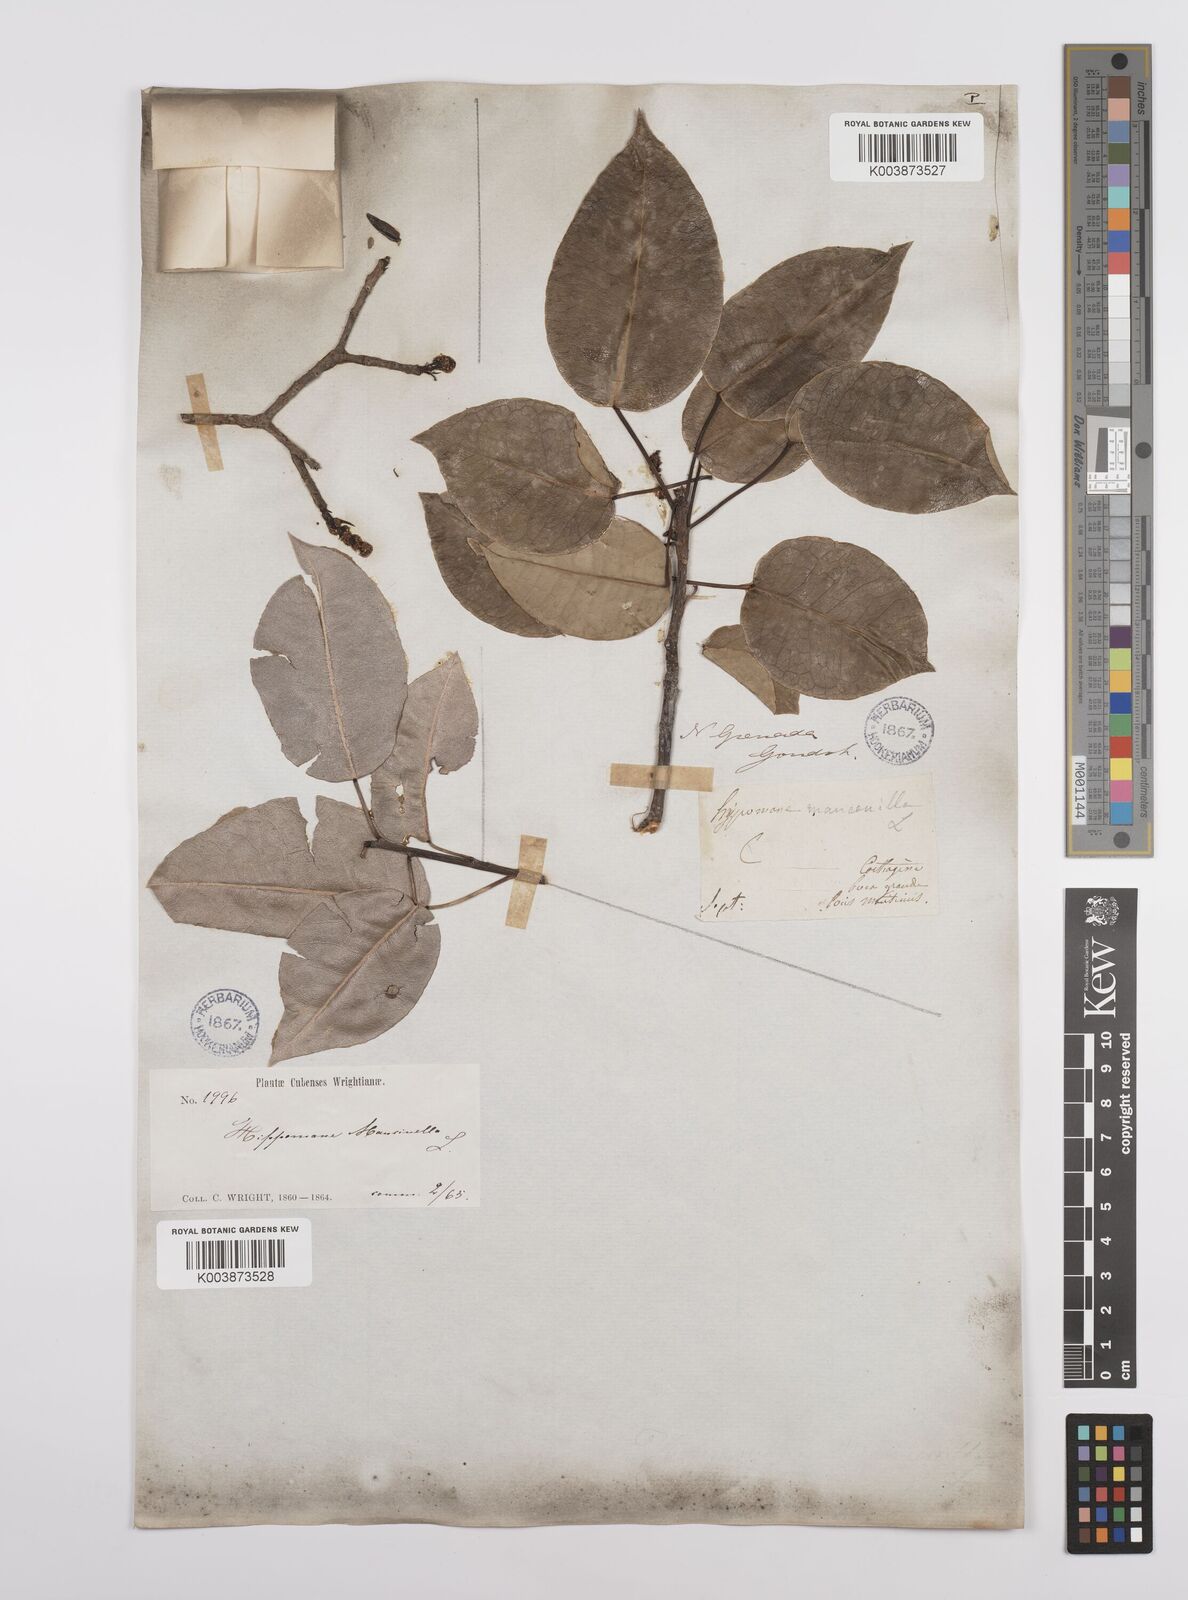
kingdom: Plantae
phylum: Tracheophyta
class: Magnoliopsida
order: Malpighiales
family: Euphorbiaceae
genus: Hippomane
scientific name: Hippomane mancinella
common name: Manchineel
